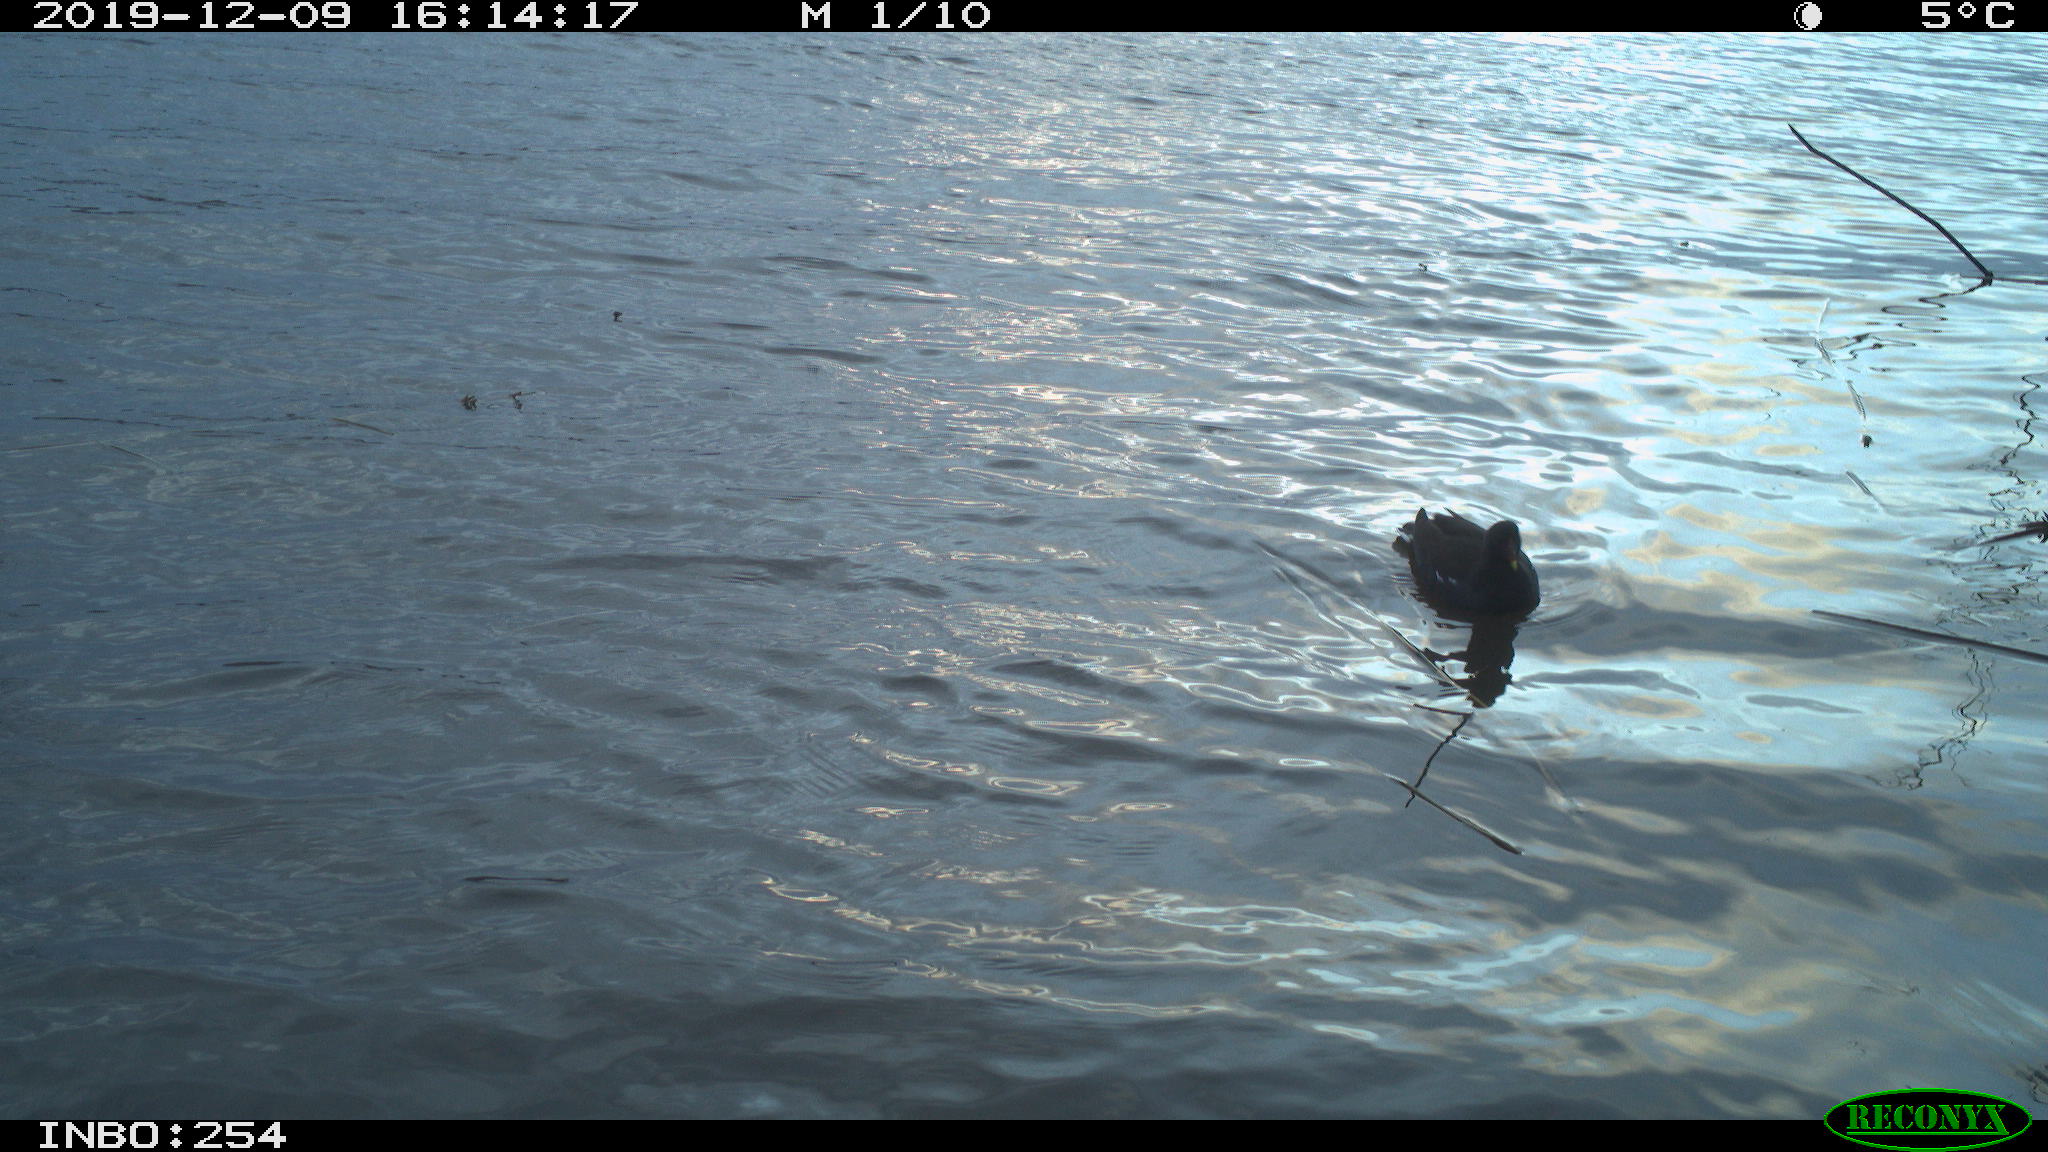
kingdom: Animalia
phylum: Chordata
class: Aves
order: Gruiformes
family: Rallidae
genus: Gallinula
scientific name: Gallinula chloropus
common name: Common moorhen
